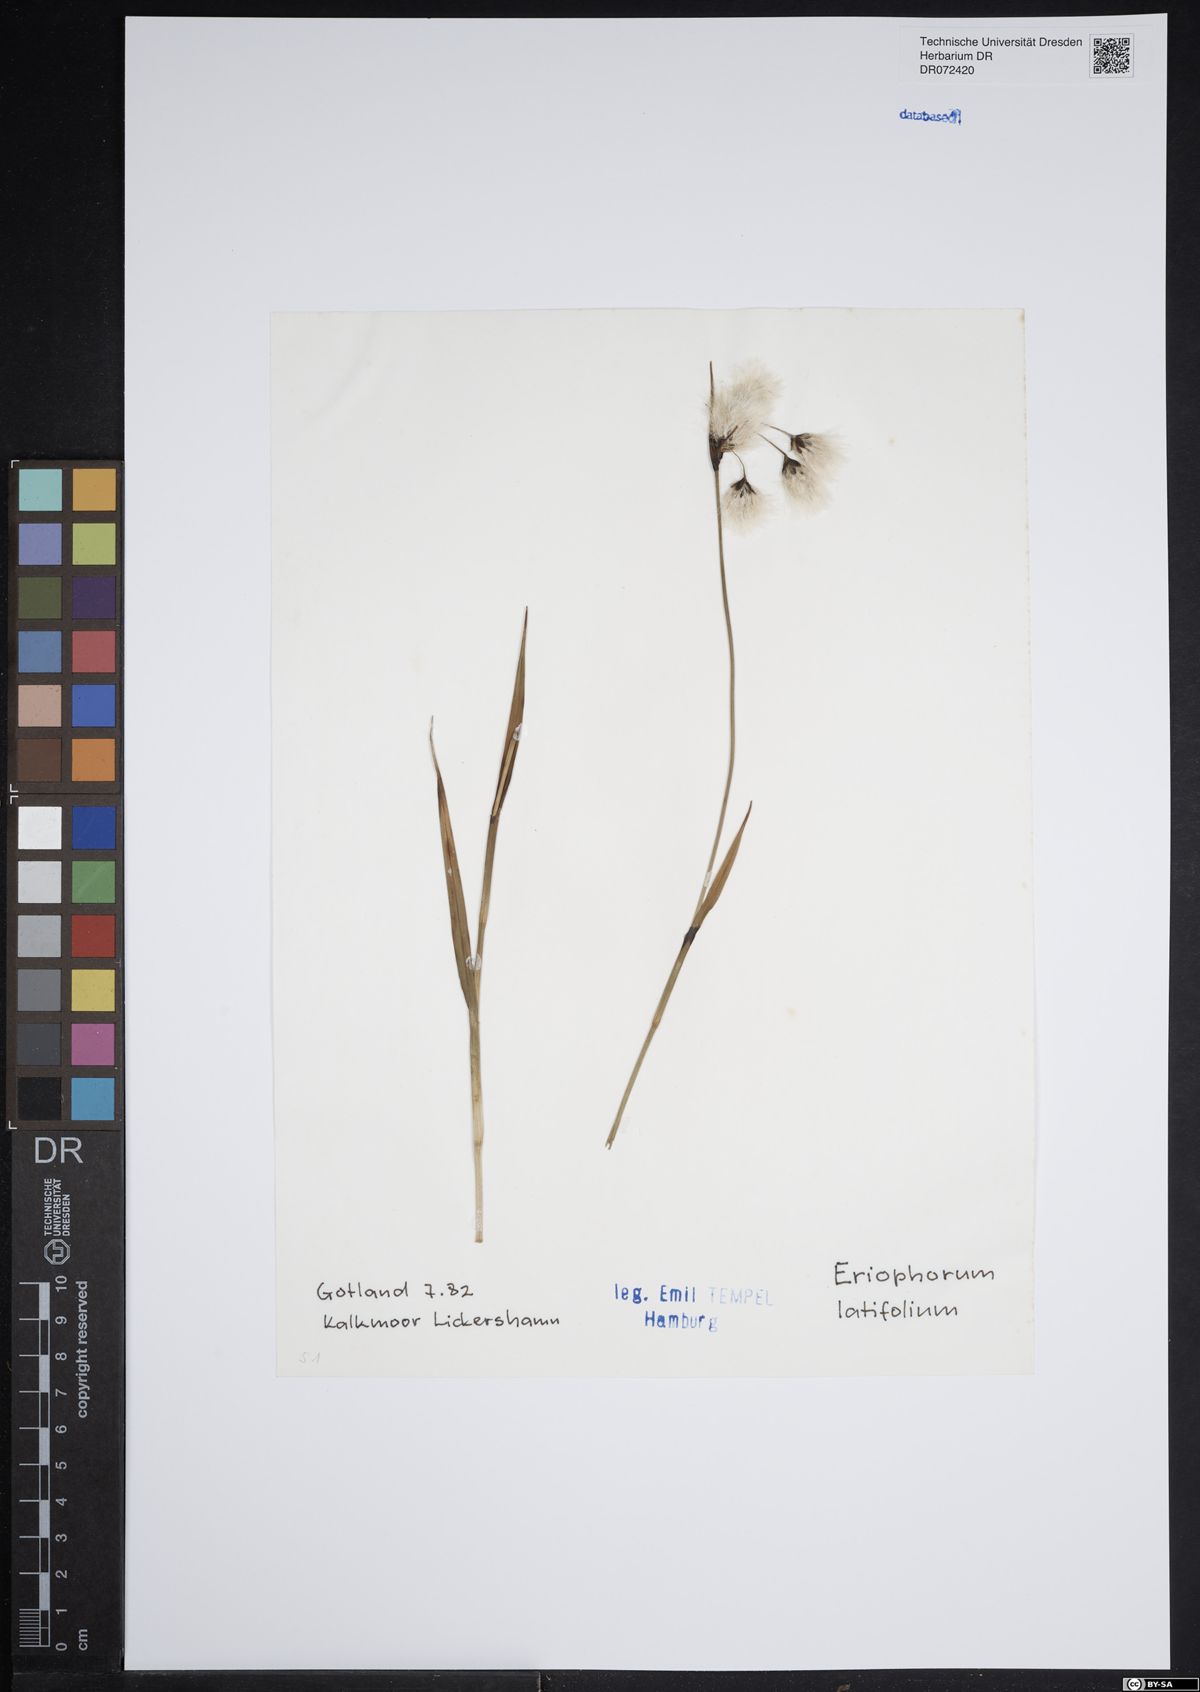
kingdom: Plantae
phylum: Tracheophyta
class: Liliopsida
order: Poales
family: Cyperaceae
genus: Eriophorum
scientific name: Eriophorum latifolium
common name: Broad-leaved cottongrass
